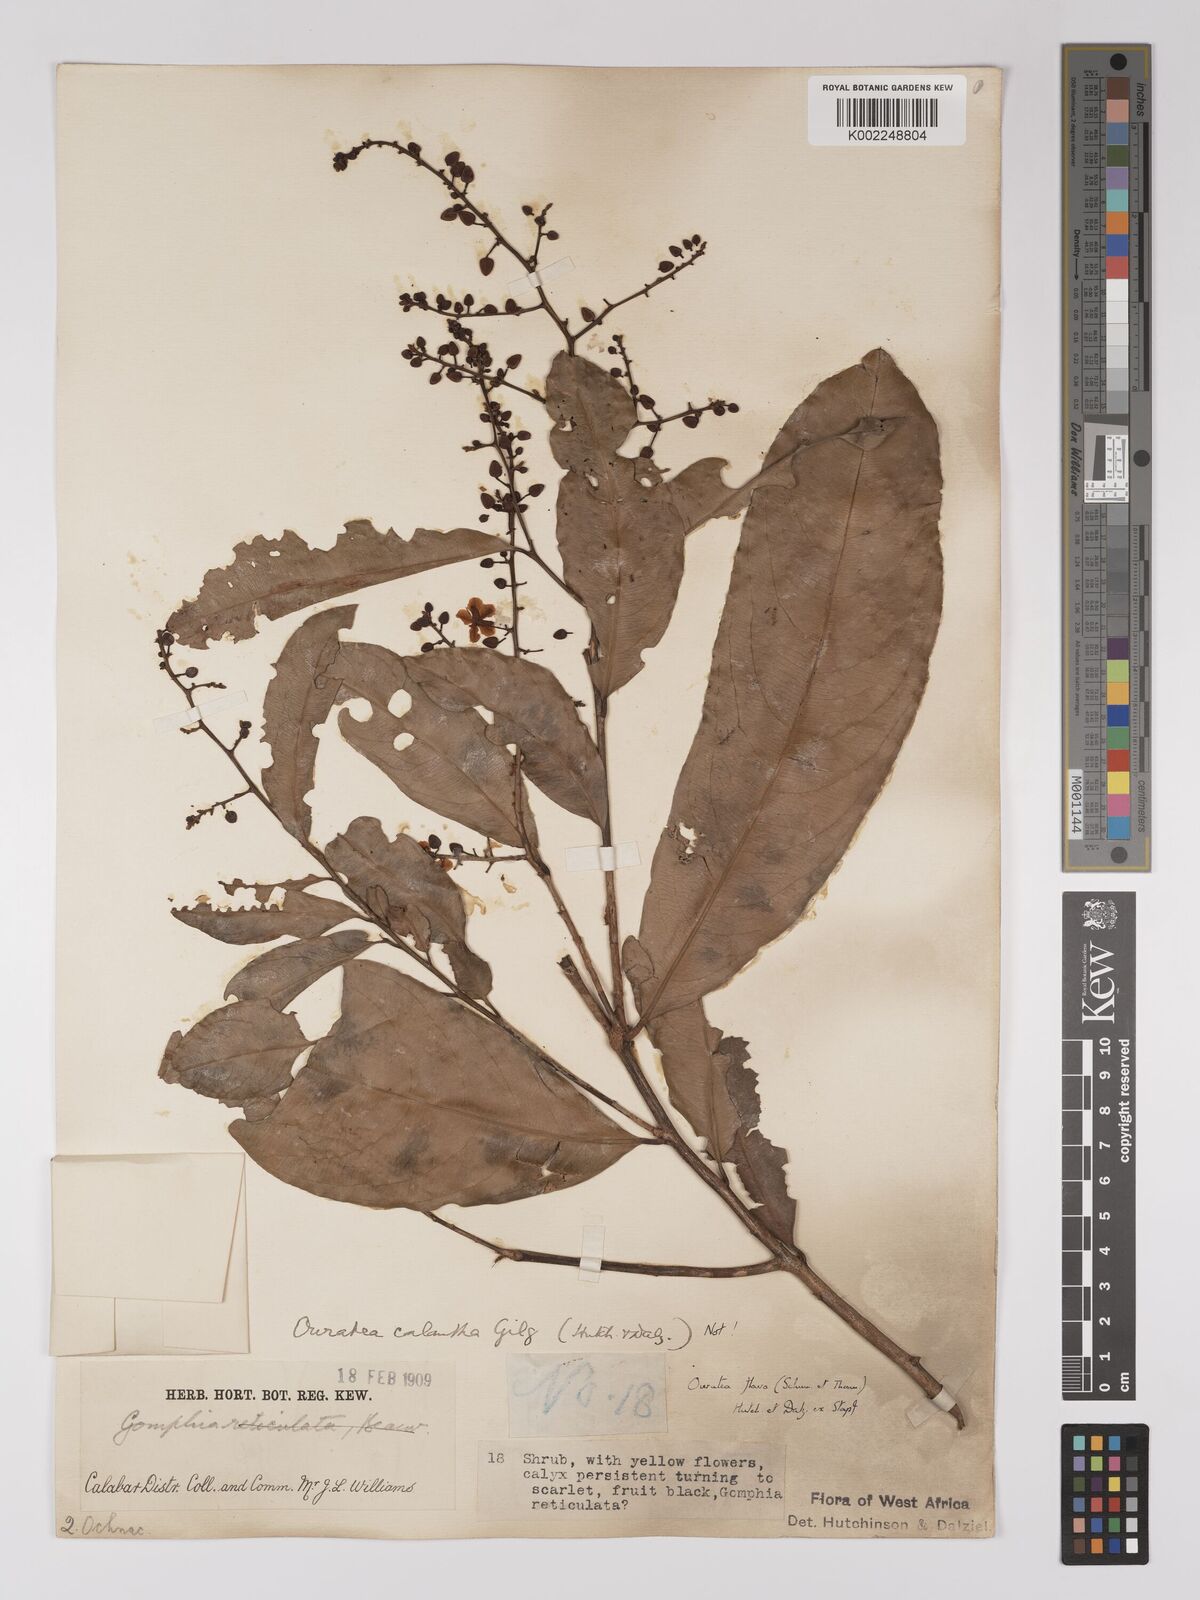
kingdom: Plantae
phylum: Tracheophyta
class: Magnoliopsida
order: Malpighiales
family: Ochnaceae
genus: Campylospermum
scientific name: Campylospermum flavum
